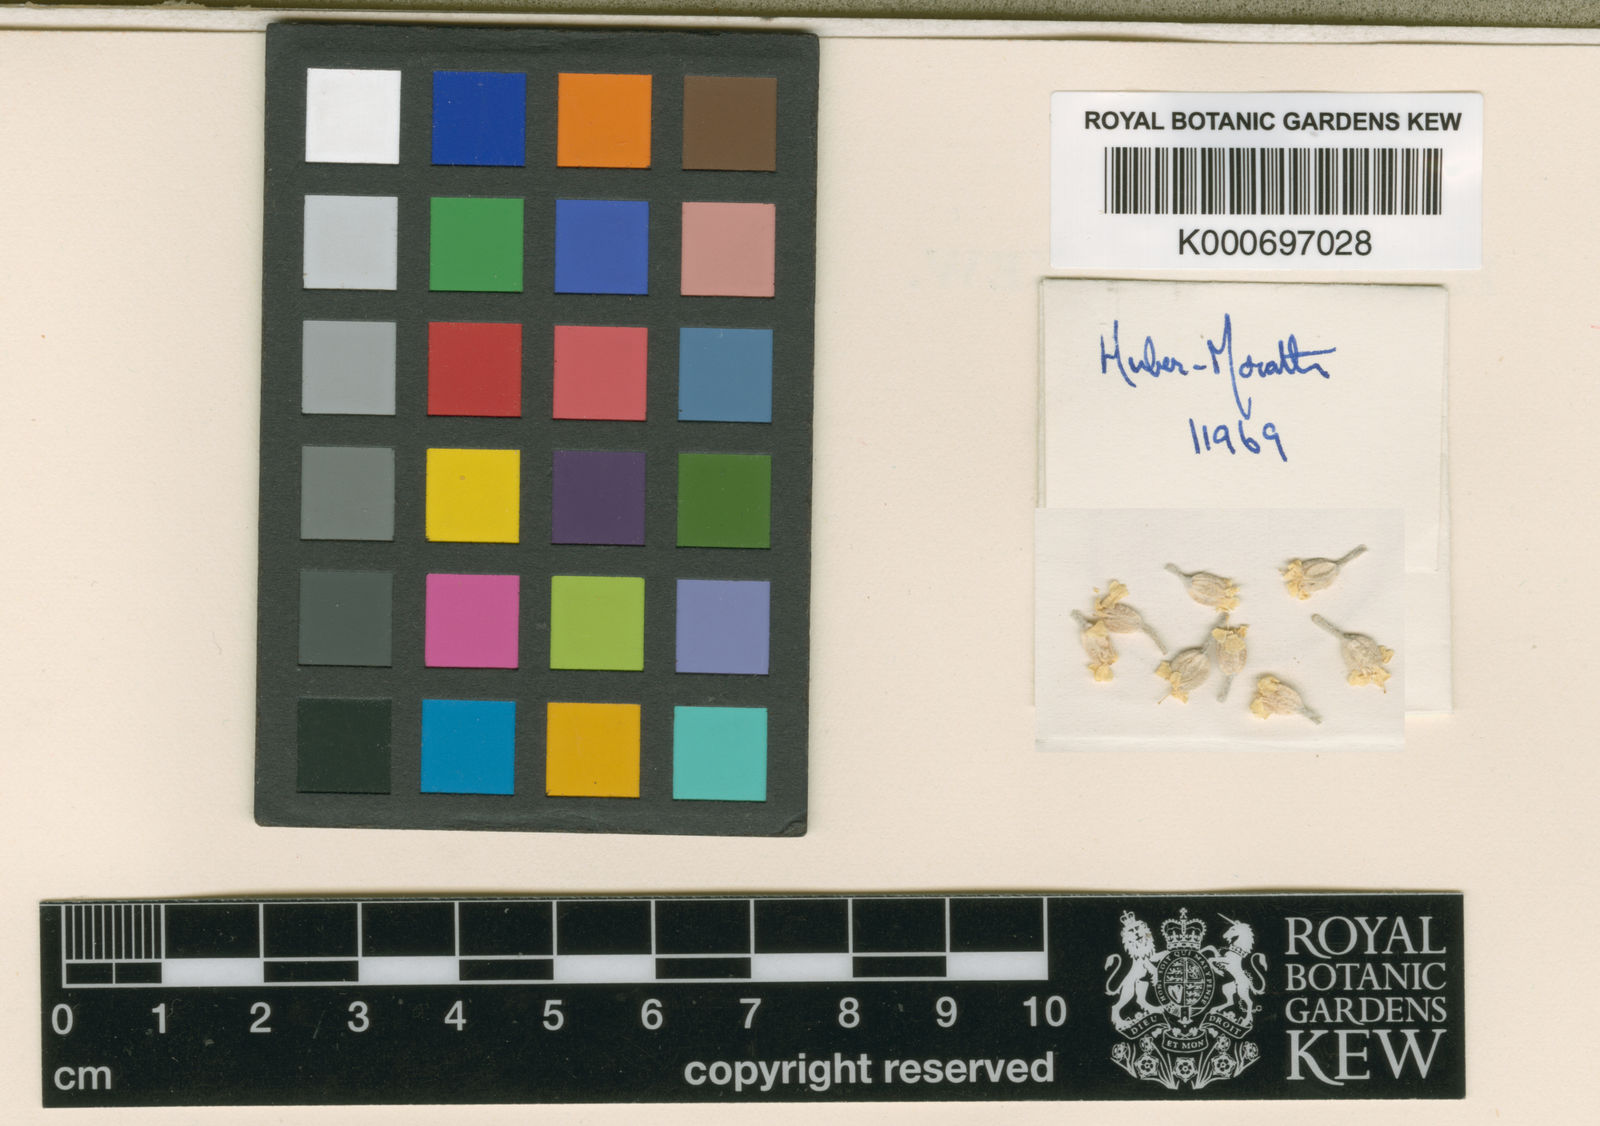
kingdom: Plantae
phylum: Tracheophyta
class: Magnoliopsida
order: Brassicales
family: Brassicaceae
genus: Alyssum
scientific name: Alyssum sulphureum
